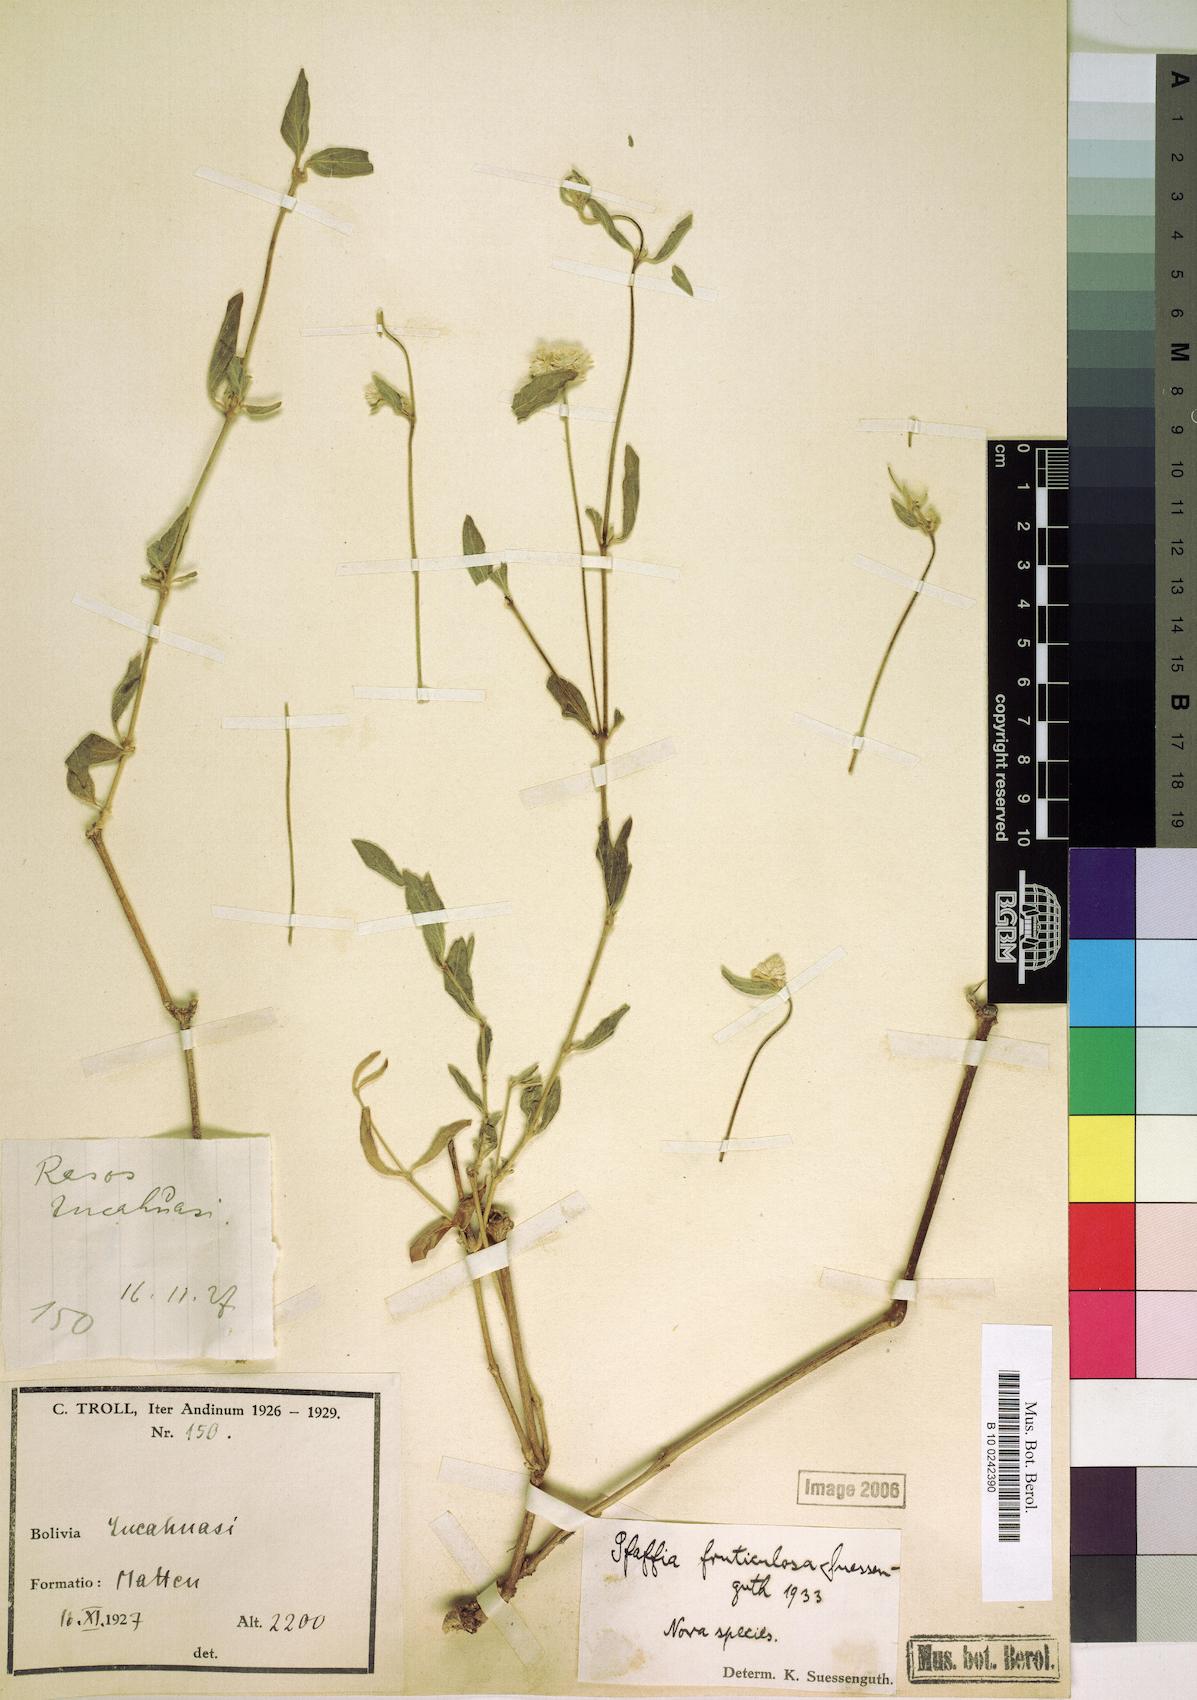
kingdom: Plantae
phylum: Tracheophyta
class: Magnoliopsida
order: Caryophyllales
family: Amaranthaceae
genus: Pfaffia
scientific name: Pfaffia fruticulosa
